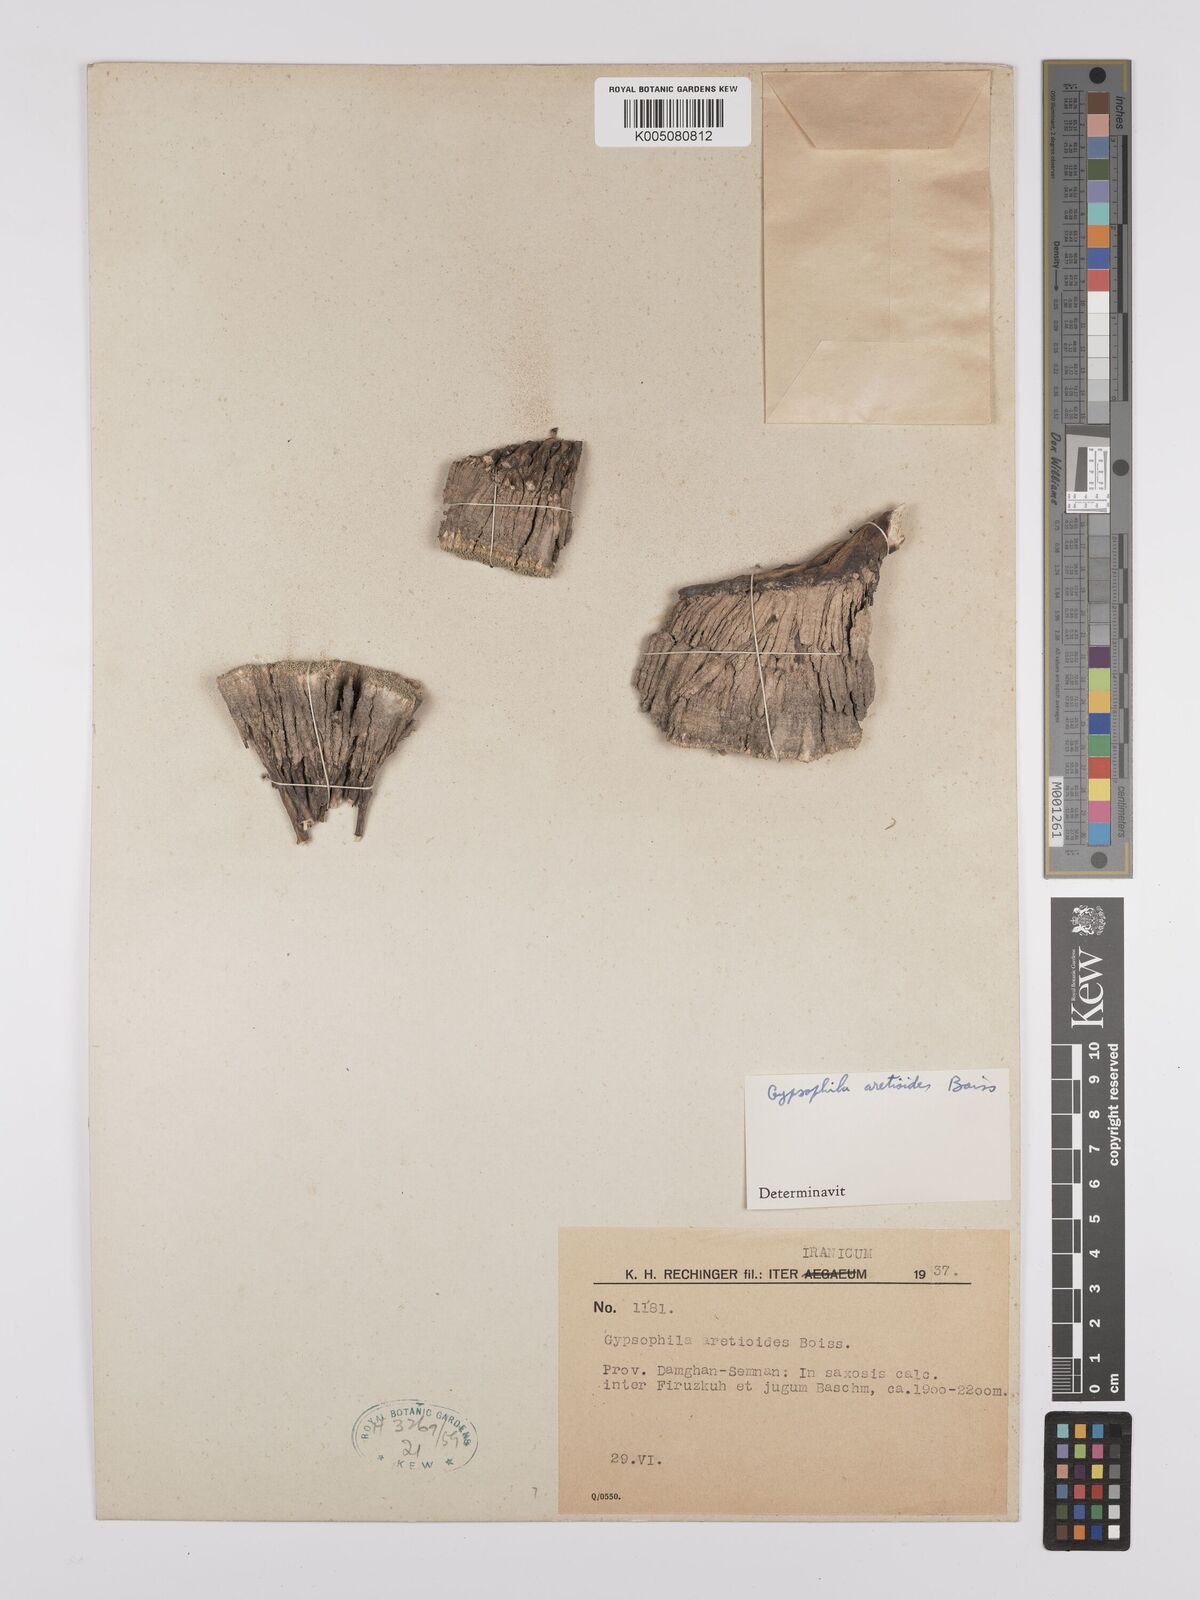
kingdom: Plantae
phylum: Tracheophyta
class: Magnoliopsida
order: Caryophyllales
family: Caryophyllaceae
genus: Gypsophila
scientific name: Gypsophila aretioides
